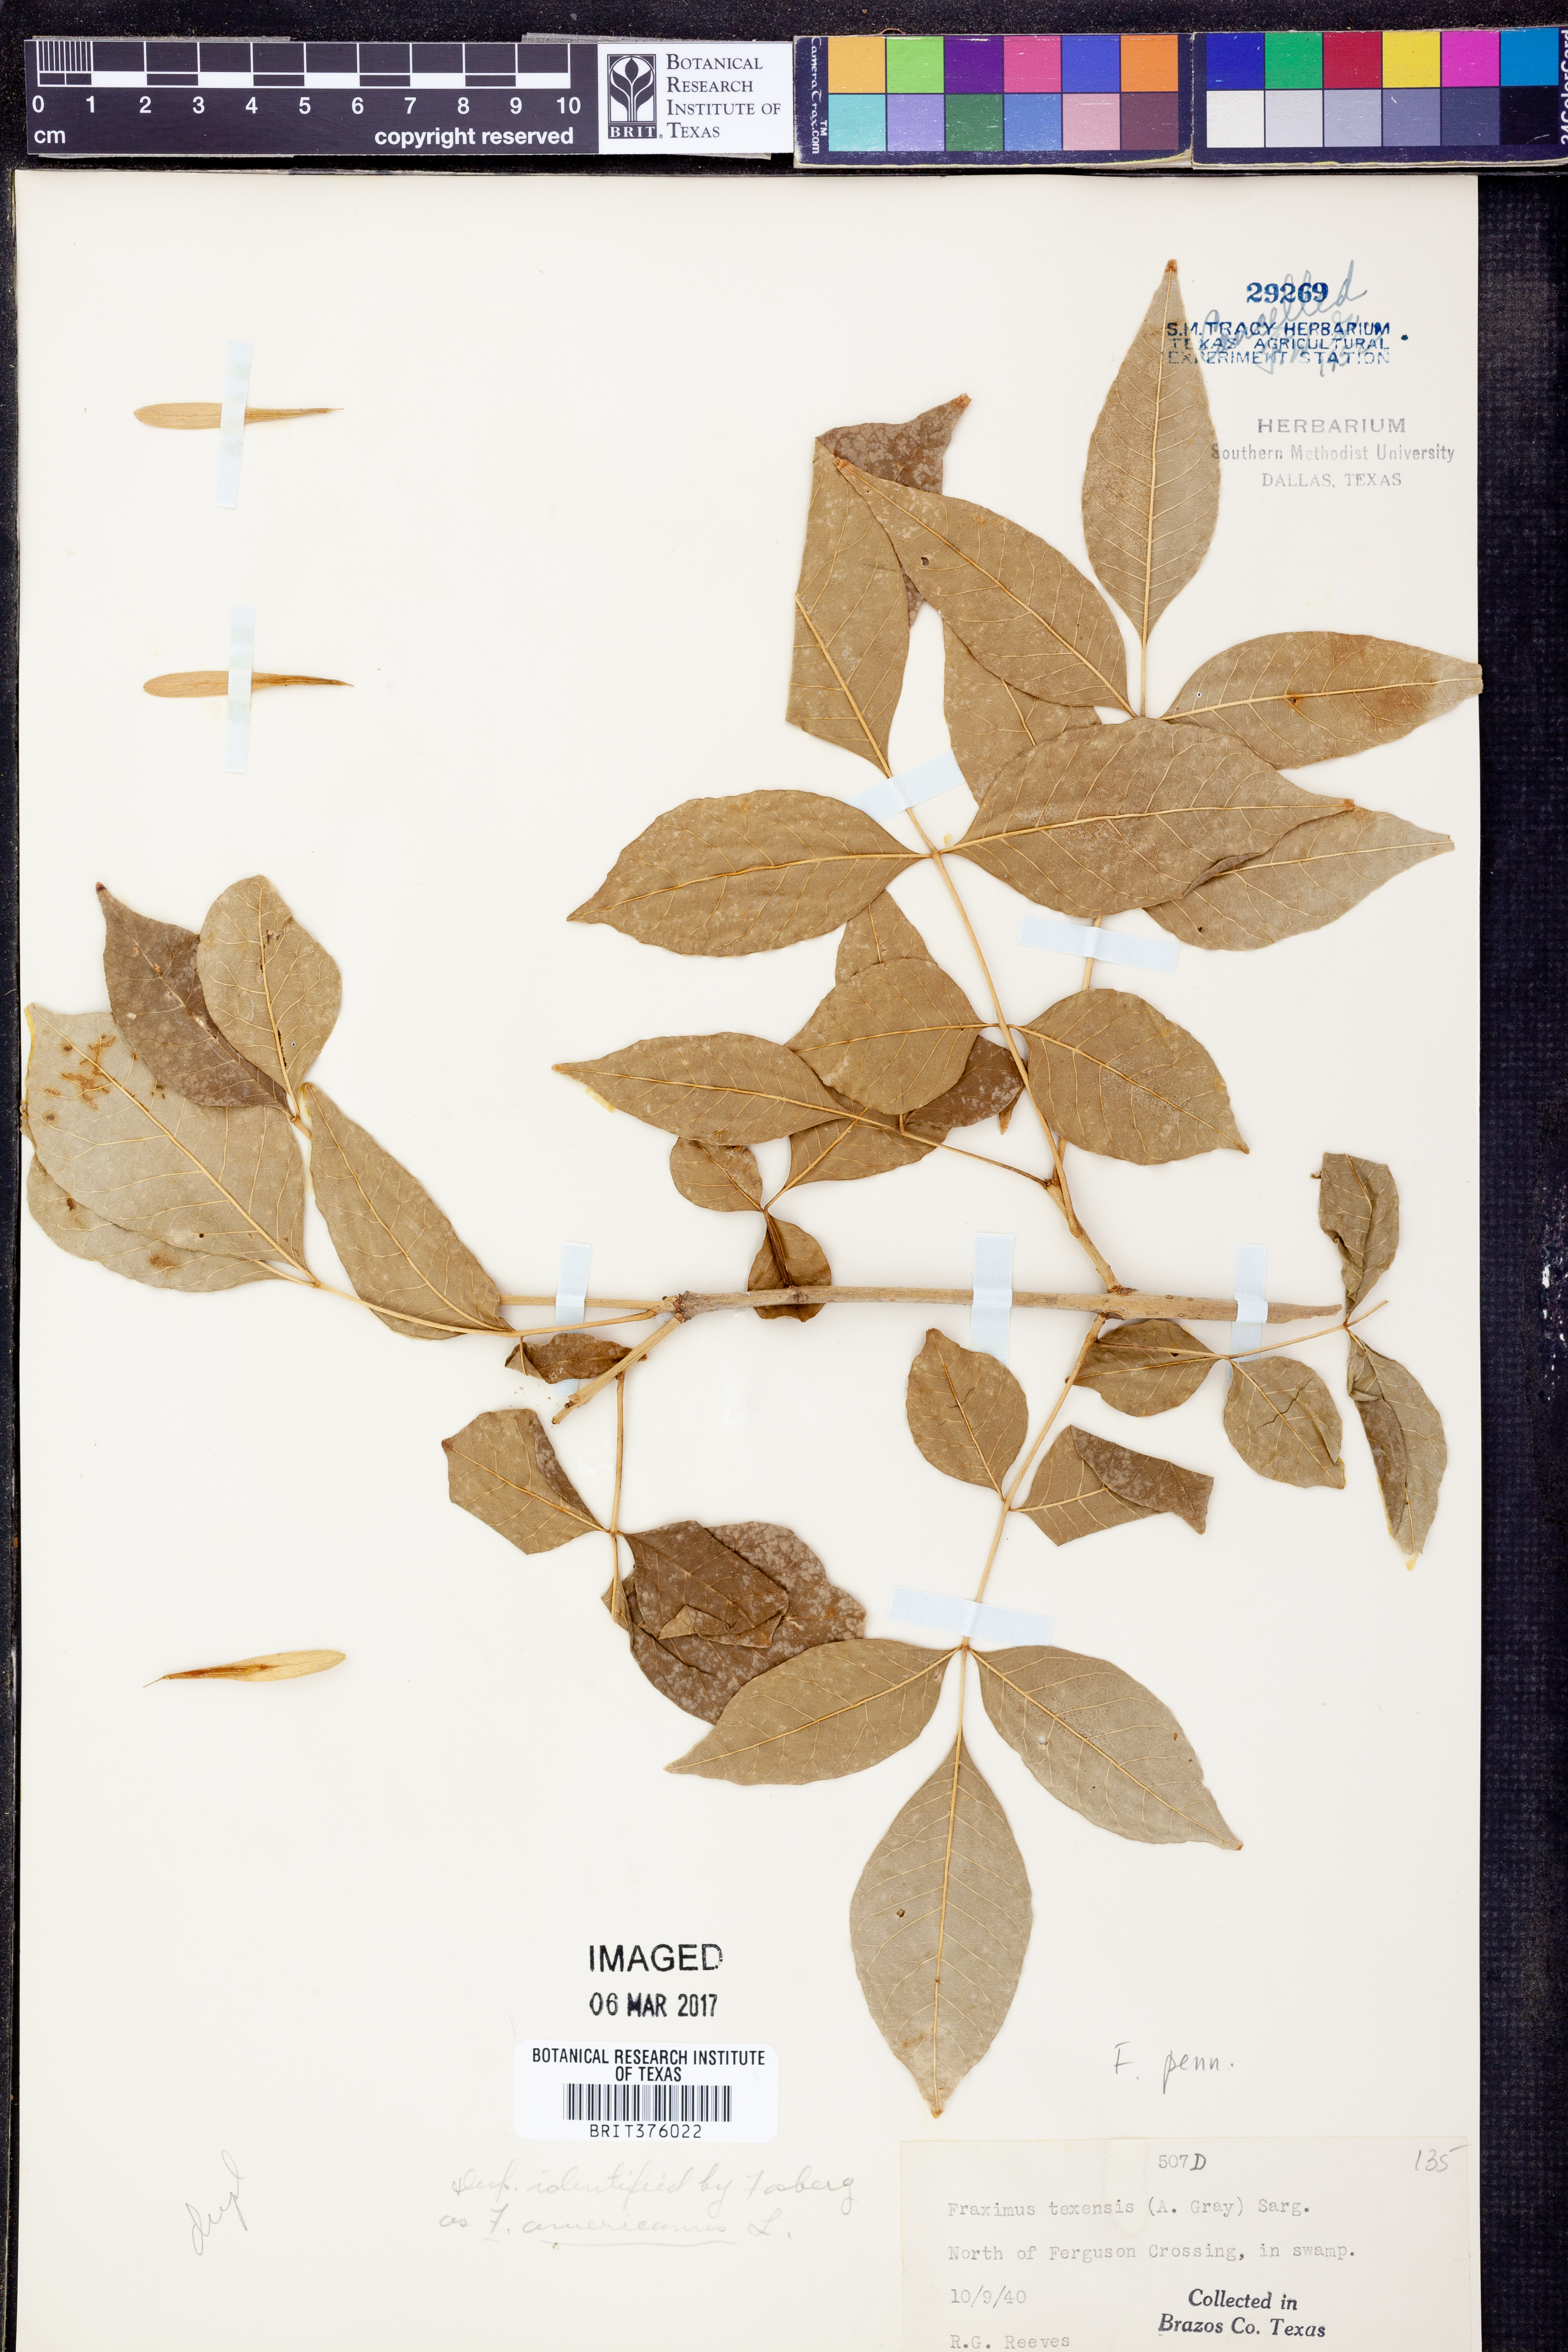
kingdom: Plantae
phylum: Tracheophyta
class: Magnoliopsida
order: Lamiales
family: Oleaceae
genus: Fraxinus
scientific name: Fraxinus pennsylvanica
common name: Green ash
